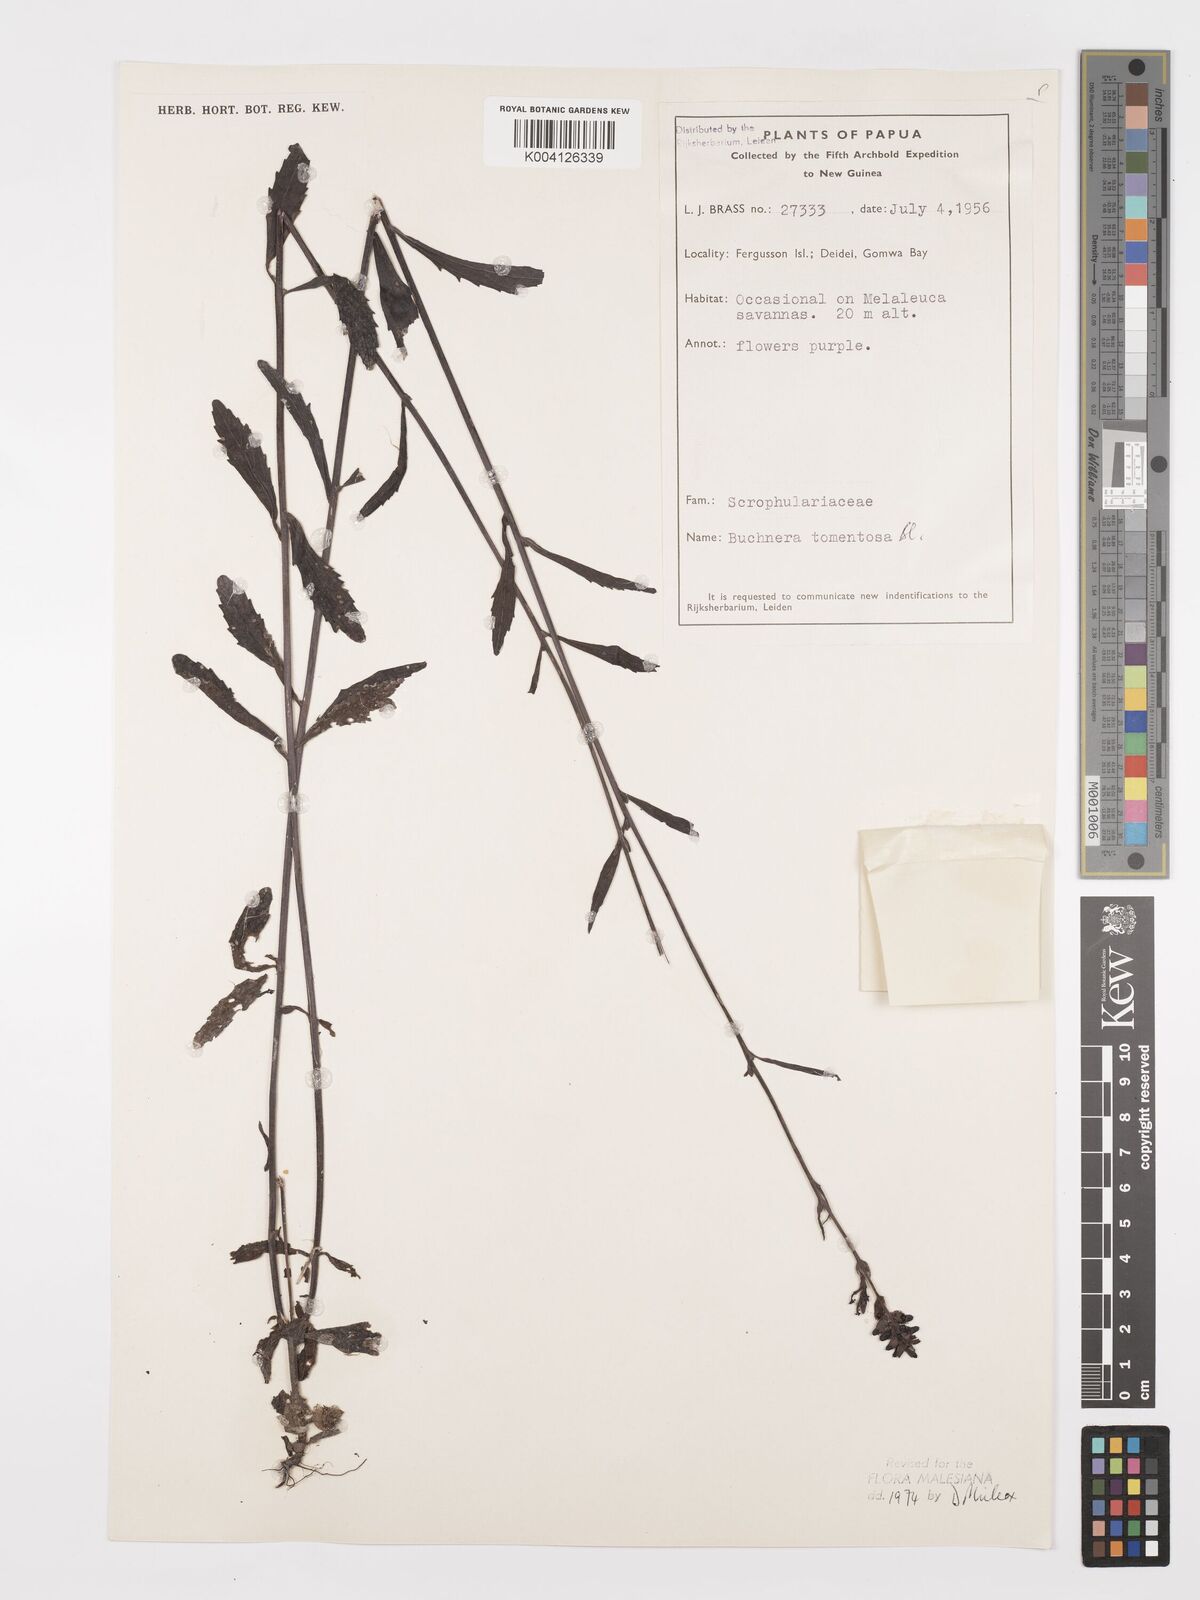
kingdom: Plantae
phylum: Tracheophyta
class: Magnoliopsida
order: Lamiales
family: Orobanchaceae
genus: Buchnera
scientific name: Buchnera tomentosa
